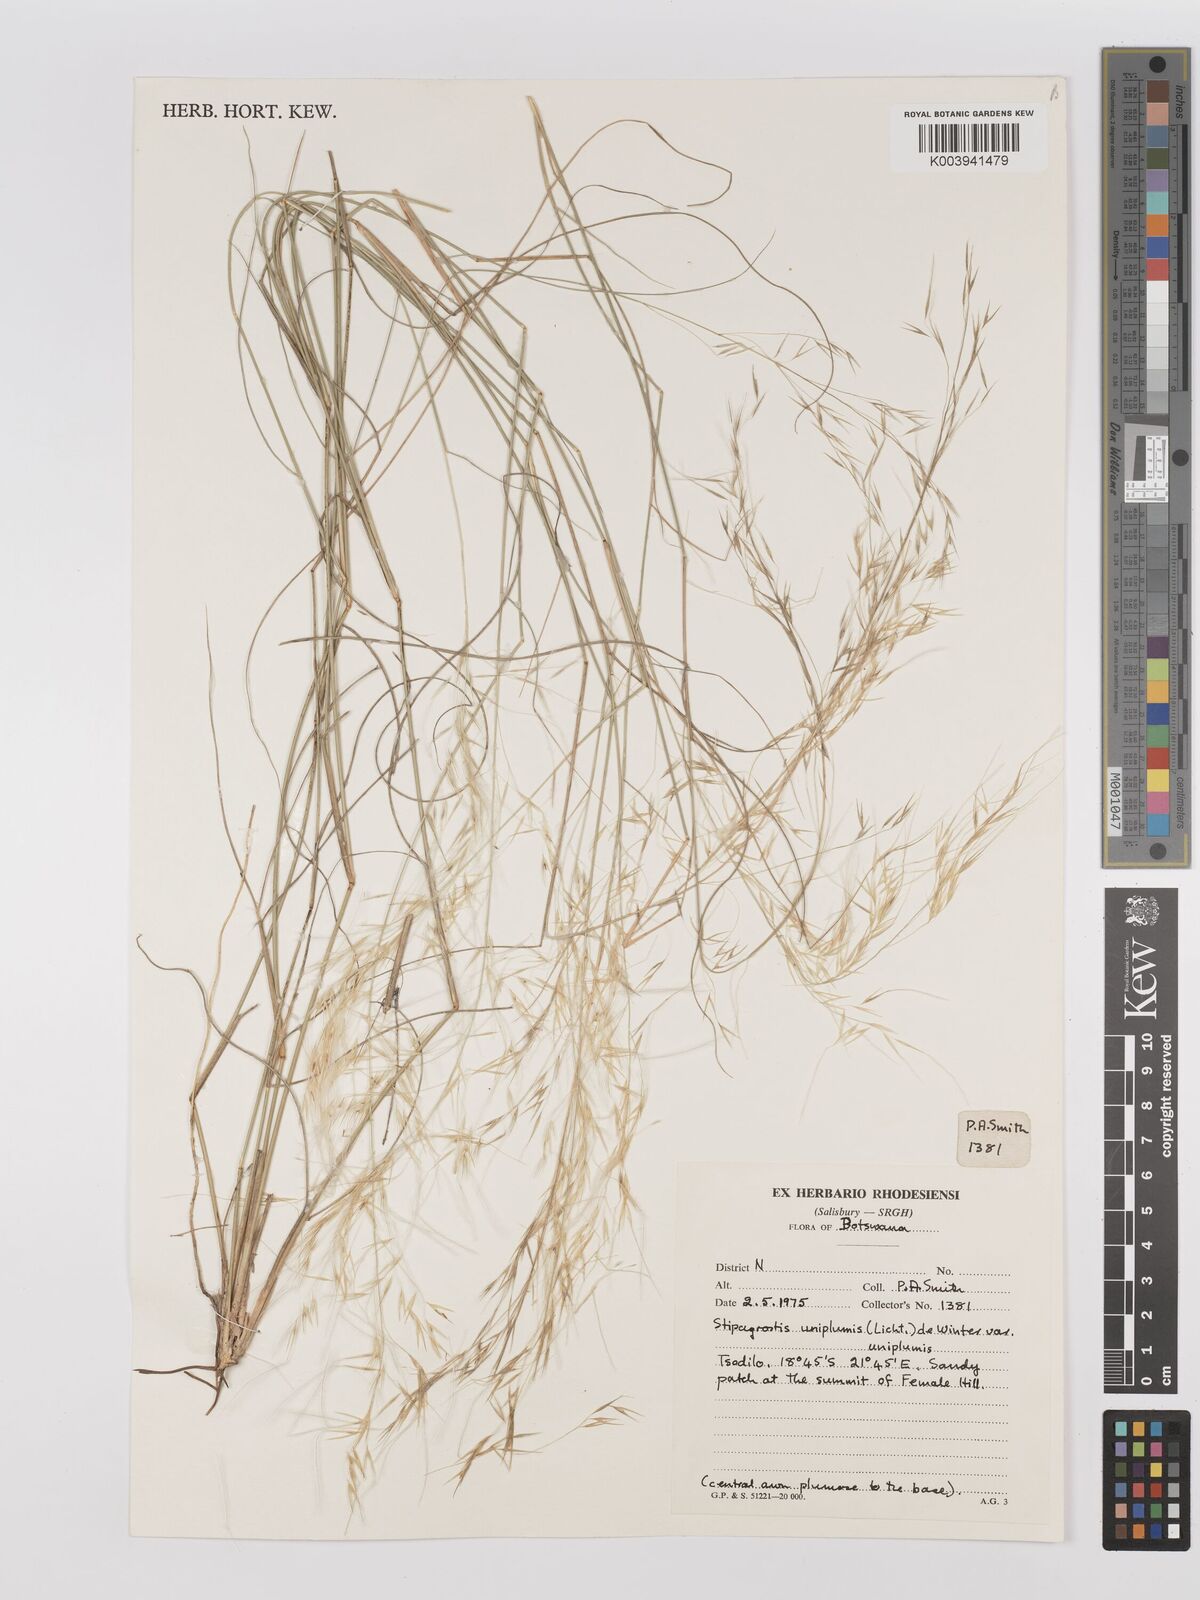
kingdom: Plantae
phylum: Tracheophyta
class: Liliopsida
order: Poales
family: Poaceae
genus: Stipagrostis
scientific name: Stipagrostis uniplumis
